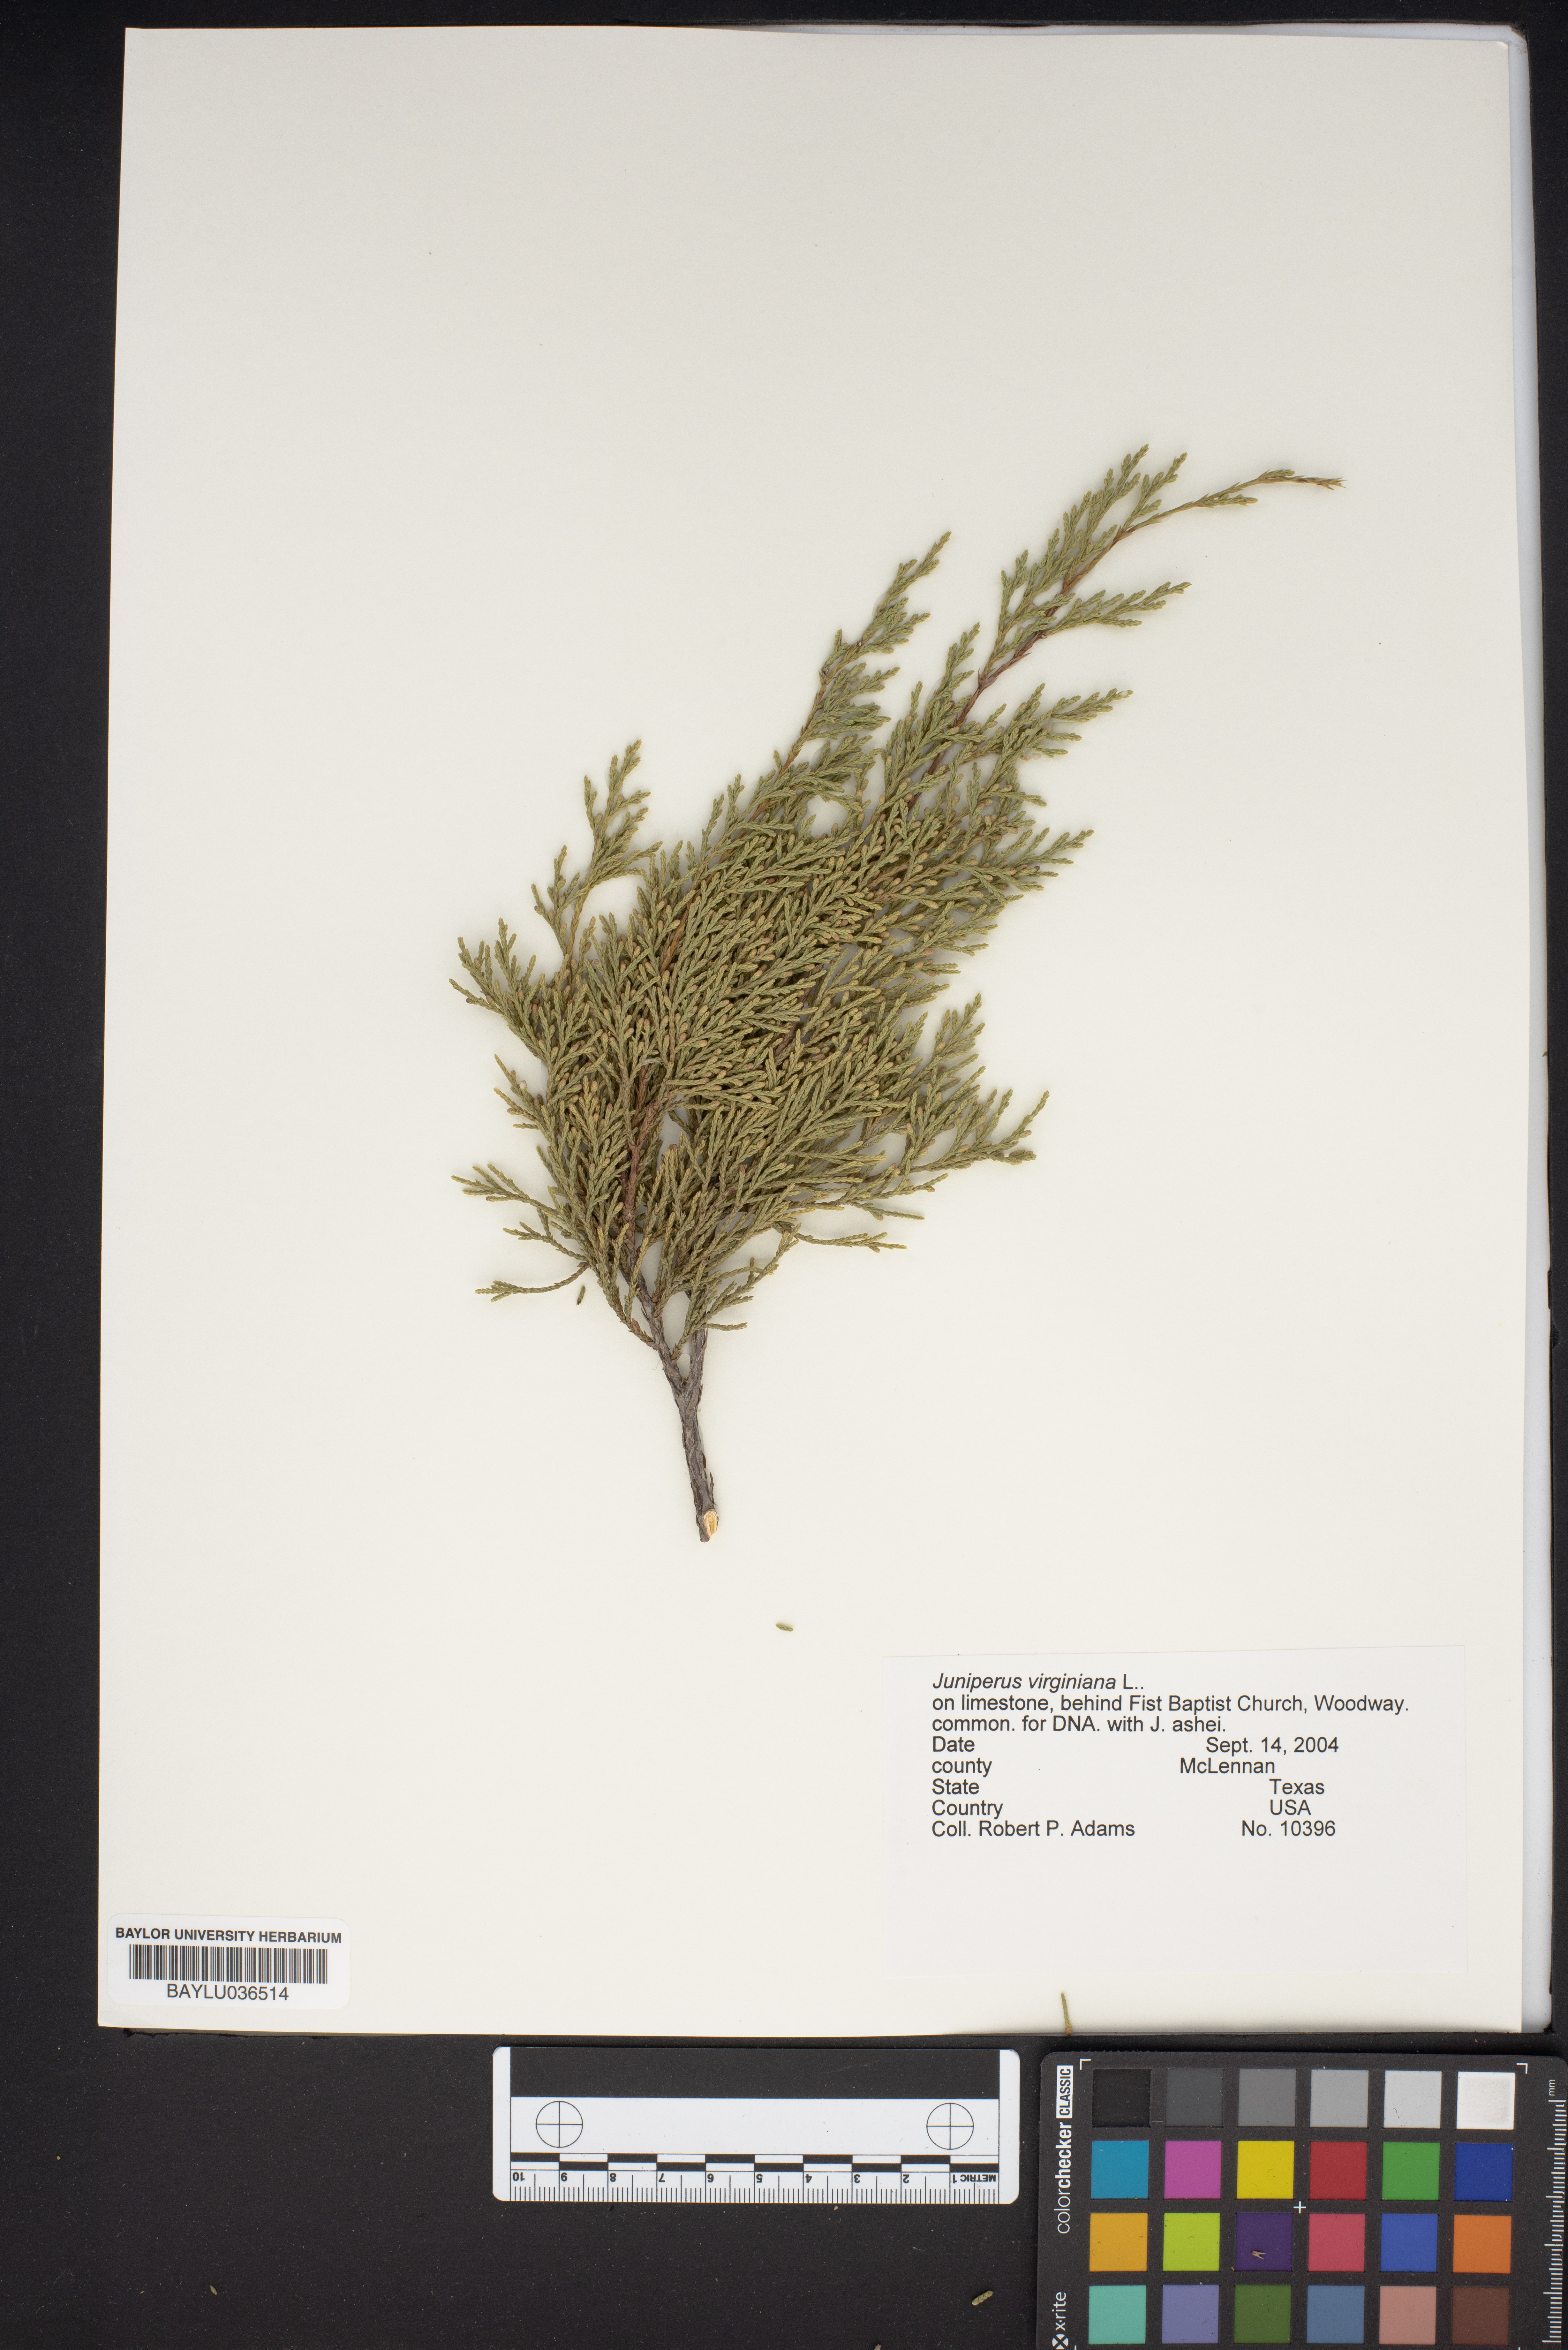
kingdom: Plantae
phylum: Tracheophyta
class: Pinopsida
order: Pinales
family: Cupressaceae
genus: Juniperus
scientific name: Juniperus virginiana
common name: Red juniper
